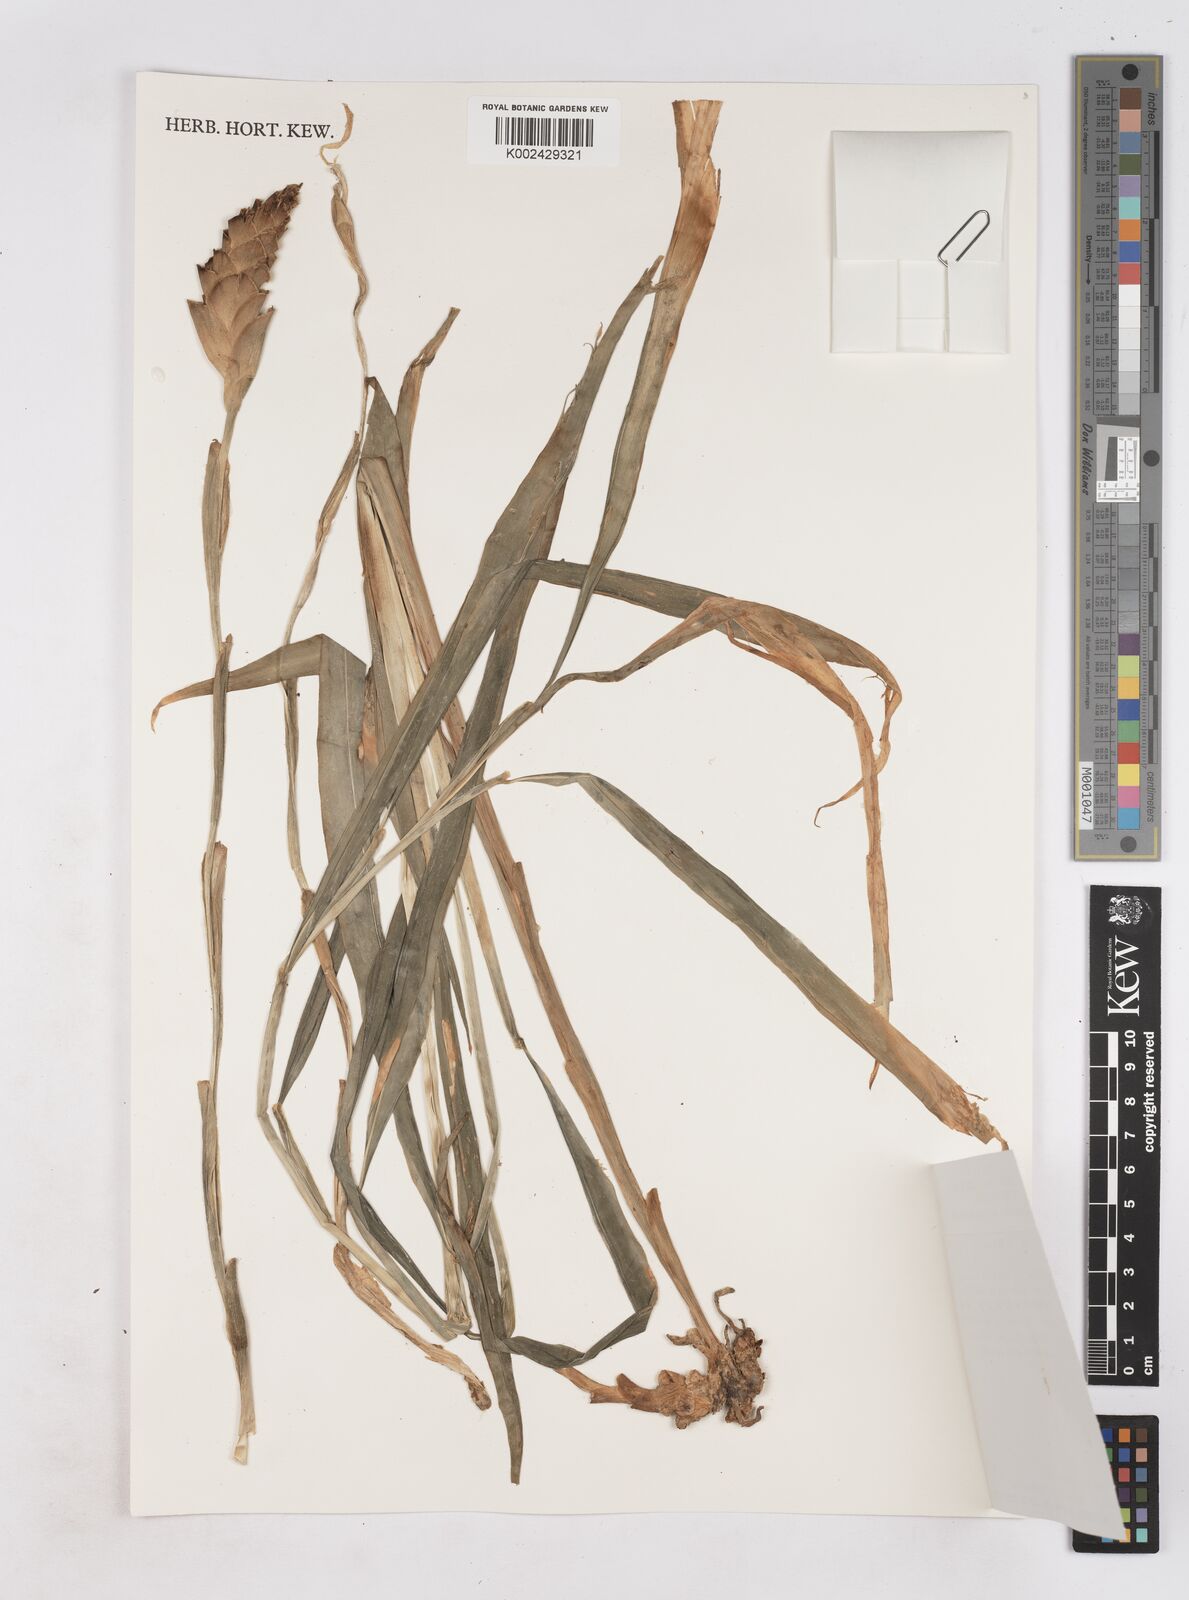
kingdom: Plantae
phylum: Tracheophyta
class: Liliopsida
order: Zingiberales
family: Zingiberaceae
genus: Zingiber
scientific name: Zingiber officinale
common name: Ginger
